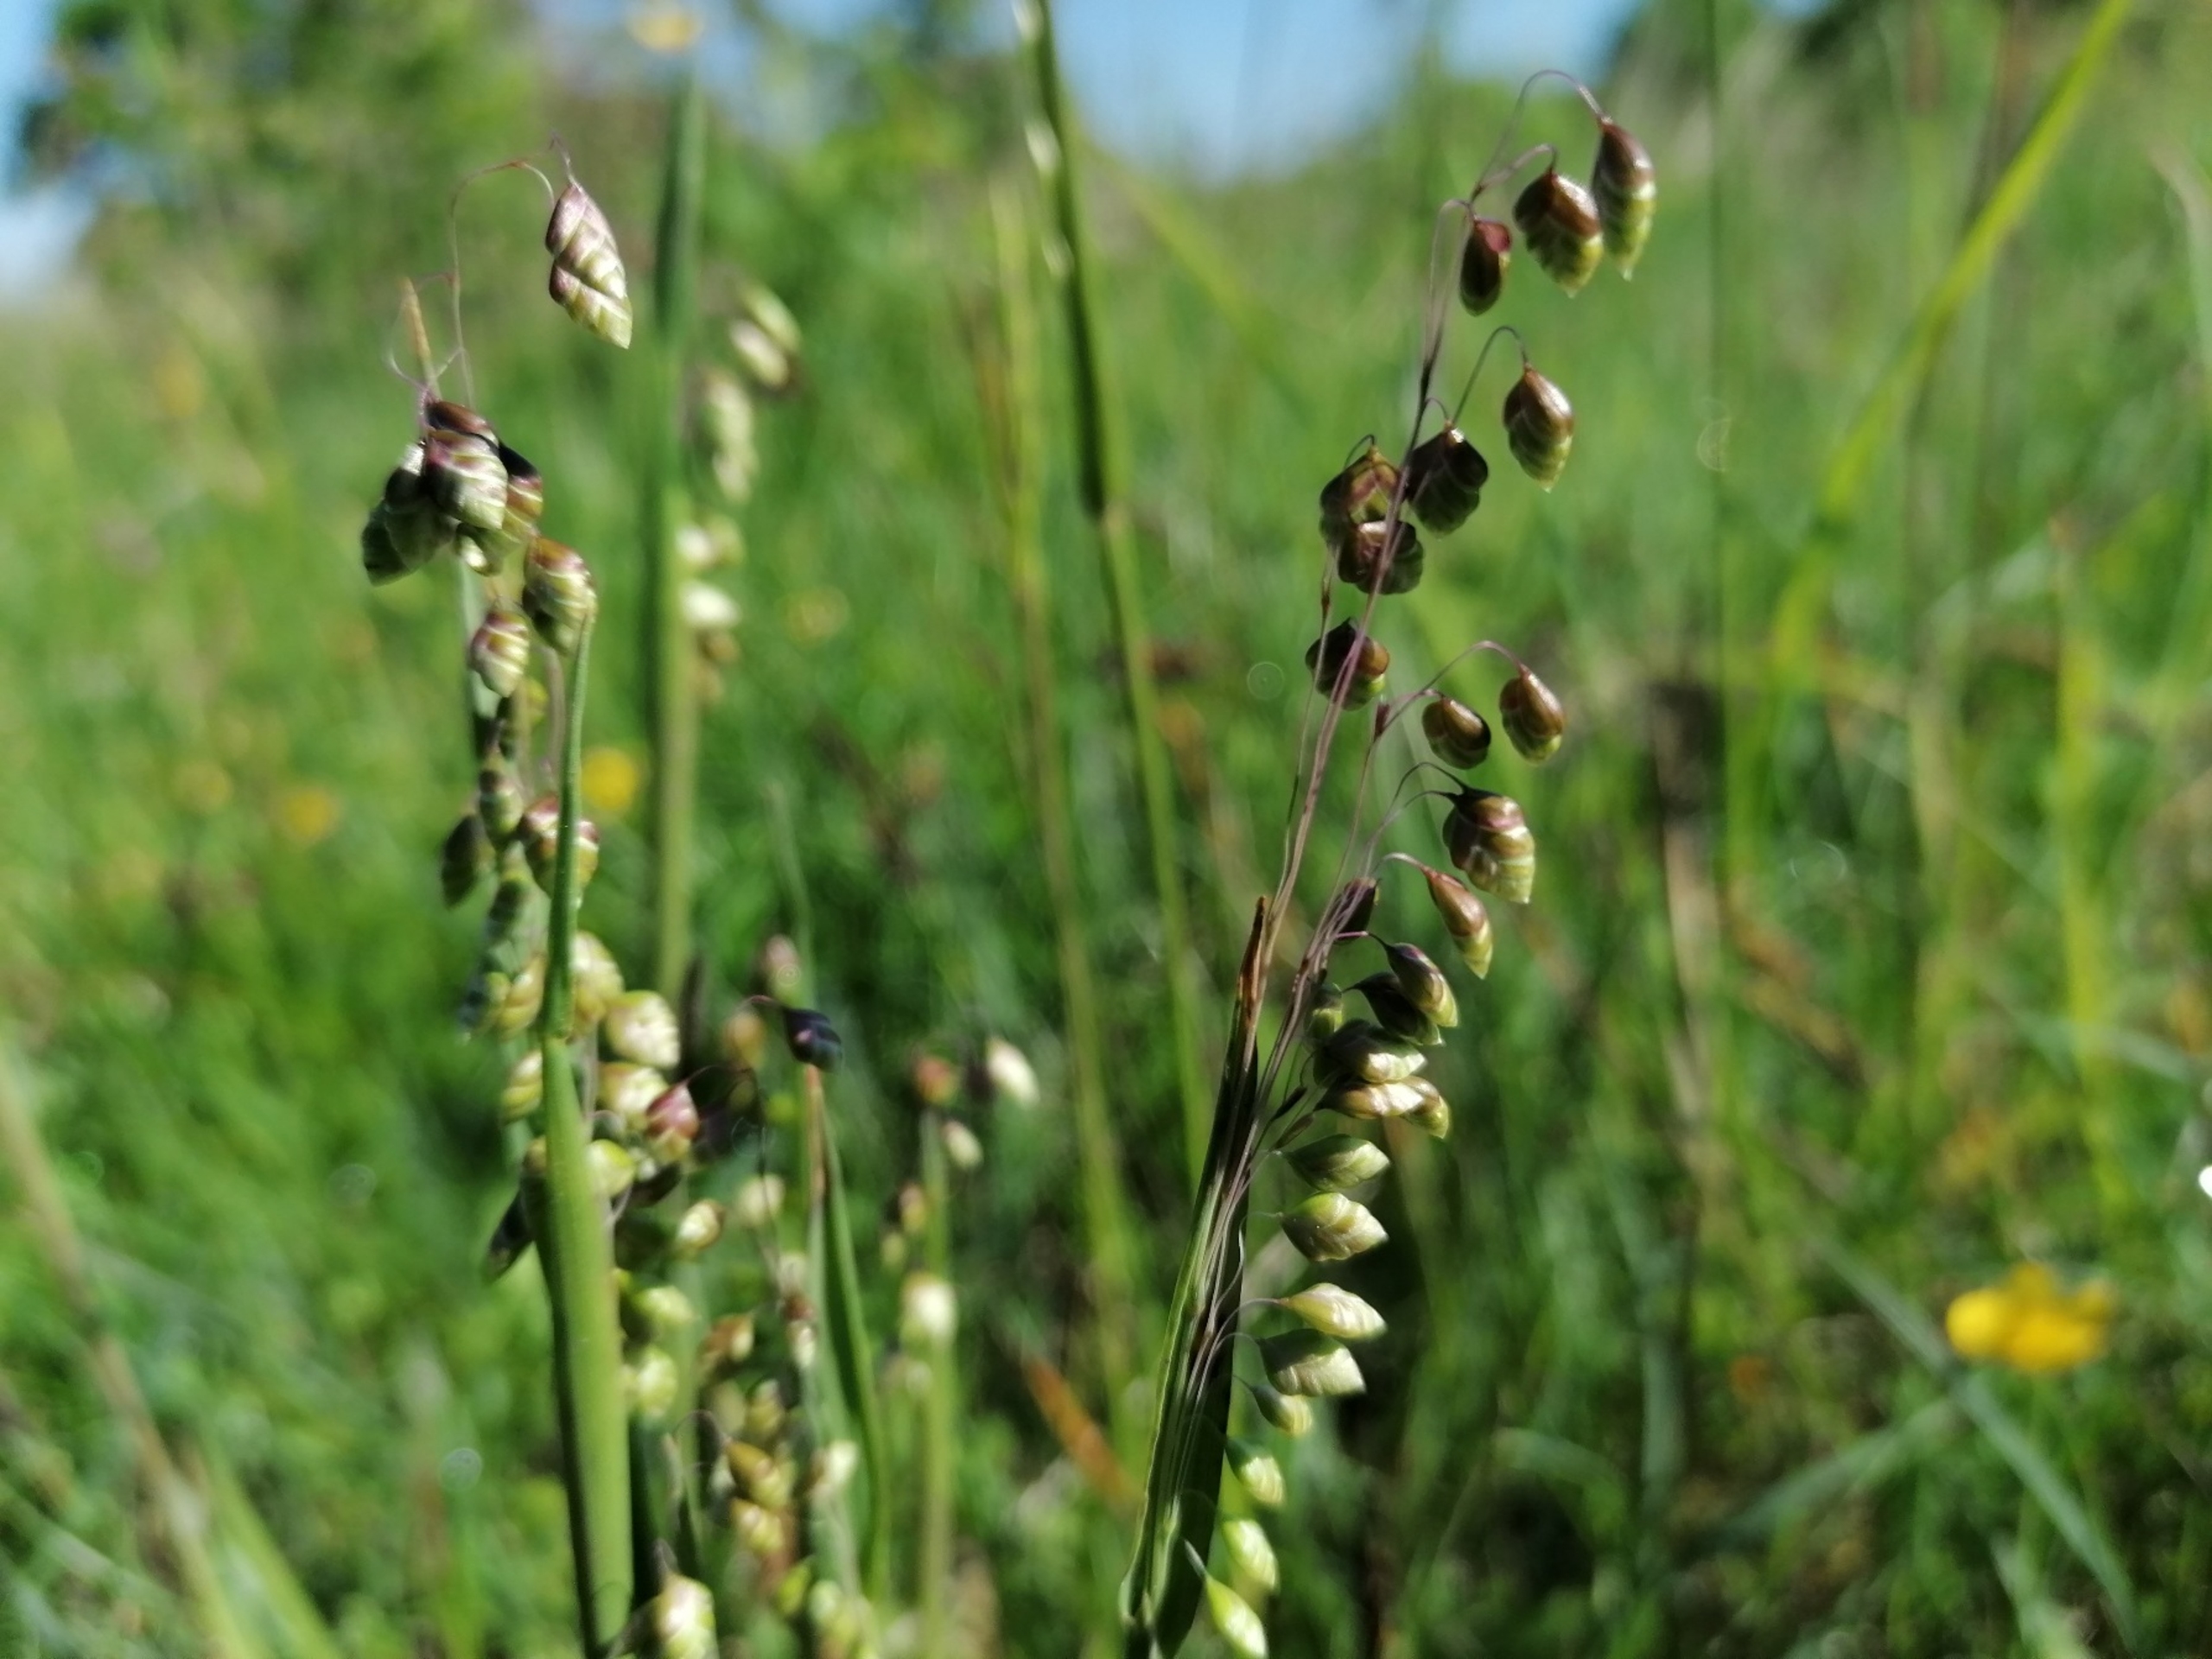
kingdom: Plantae
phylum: Tracheophyta
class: Liliopsida
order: Poales
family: Poaceae
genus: Briza
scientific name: Briza media
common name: Hjertegræs
